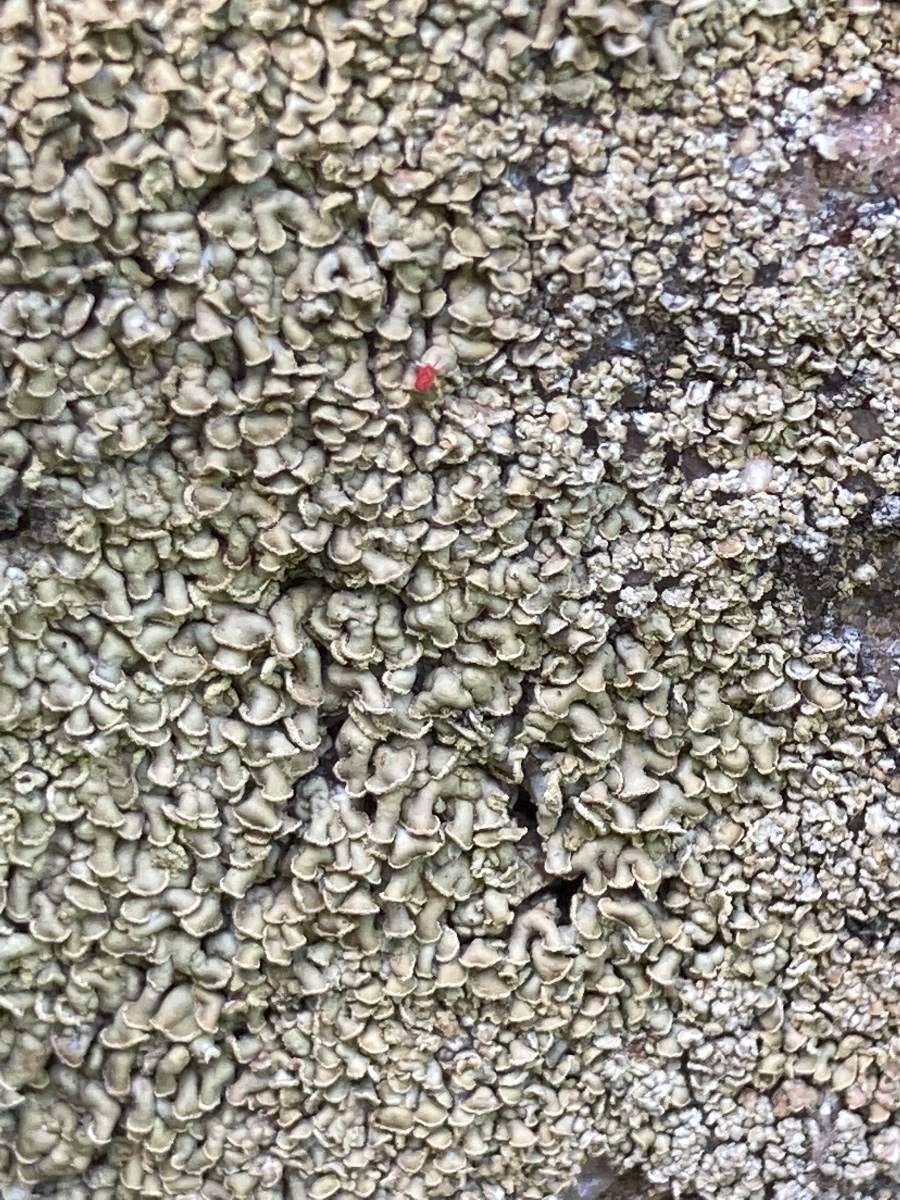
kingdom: Fungi
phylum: Ascomycota
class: Lecanoromycetes
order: Umbilicariales
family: Ophioparmaceae
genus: Hypocenomyce
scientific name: Hypocenomyce scalaris
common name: småskællet muslinglav
